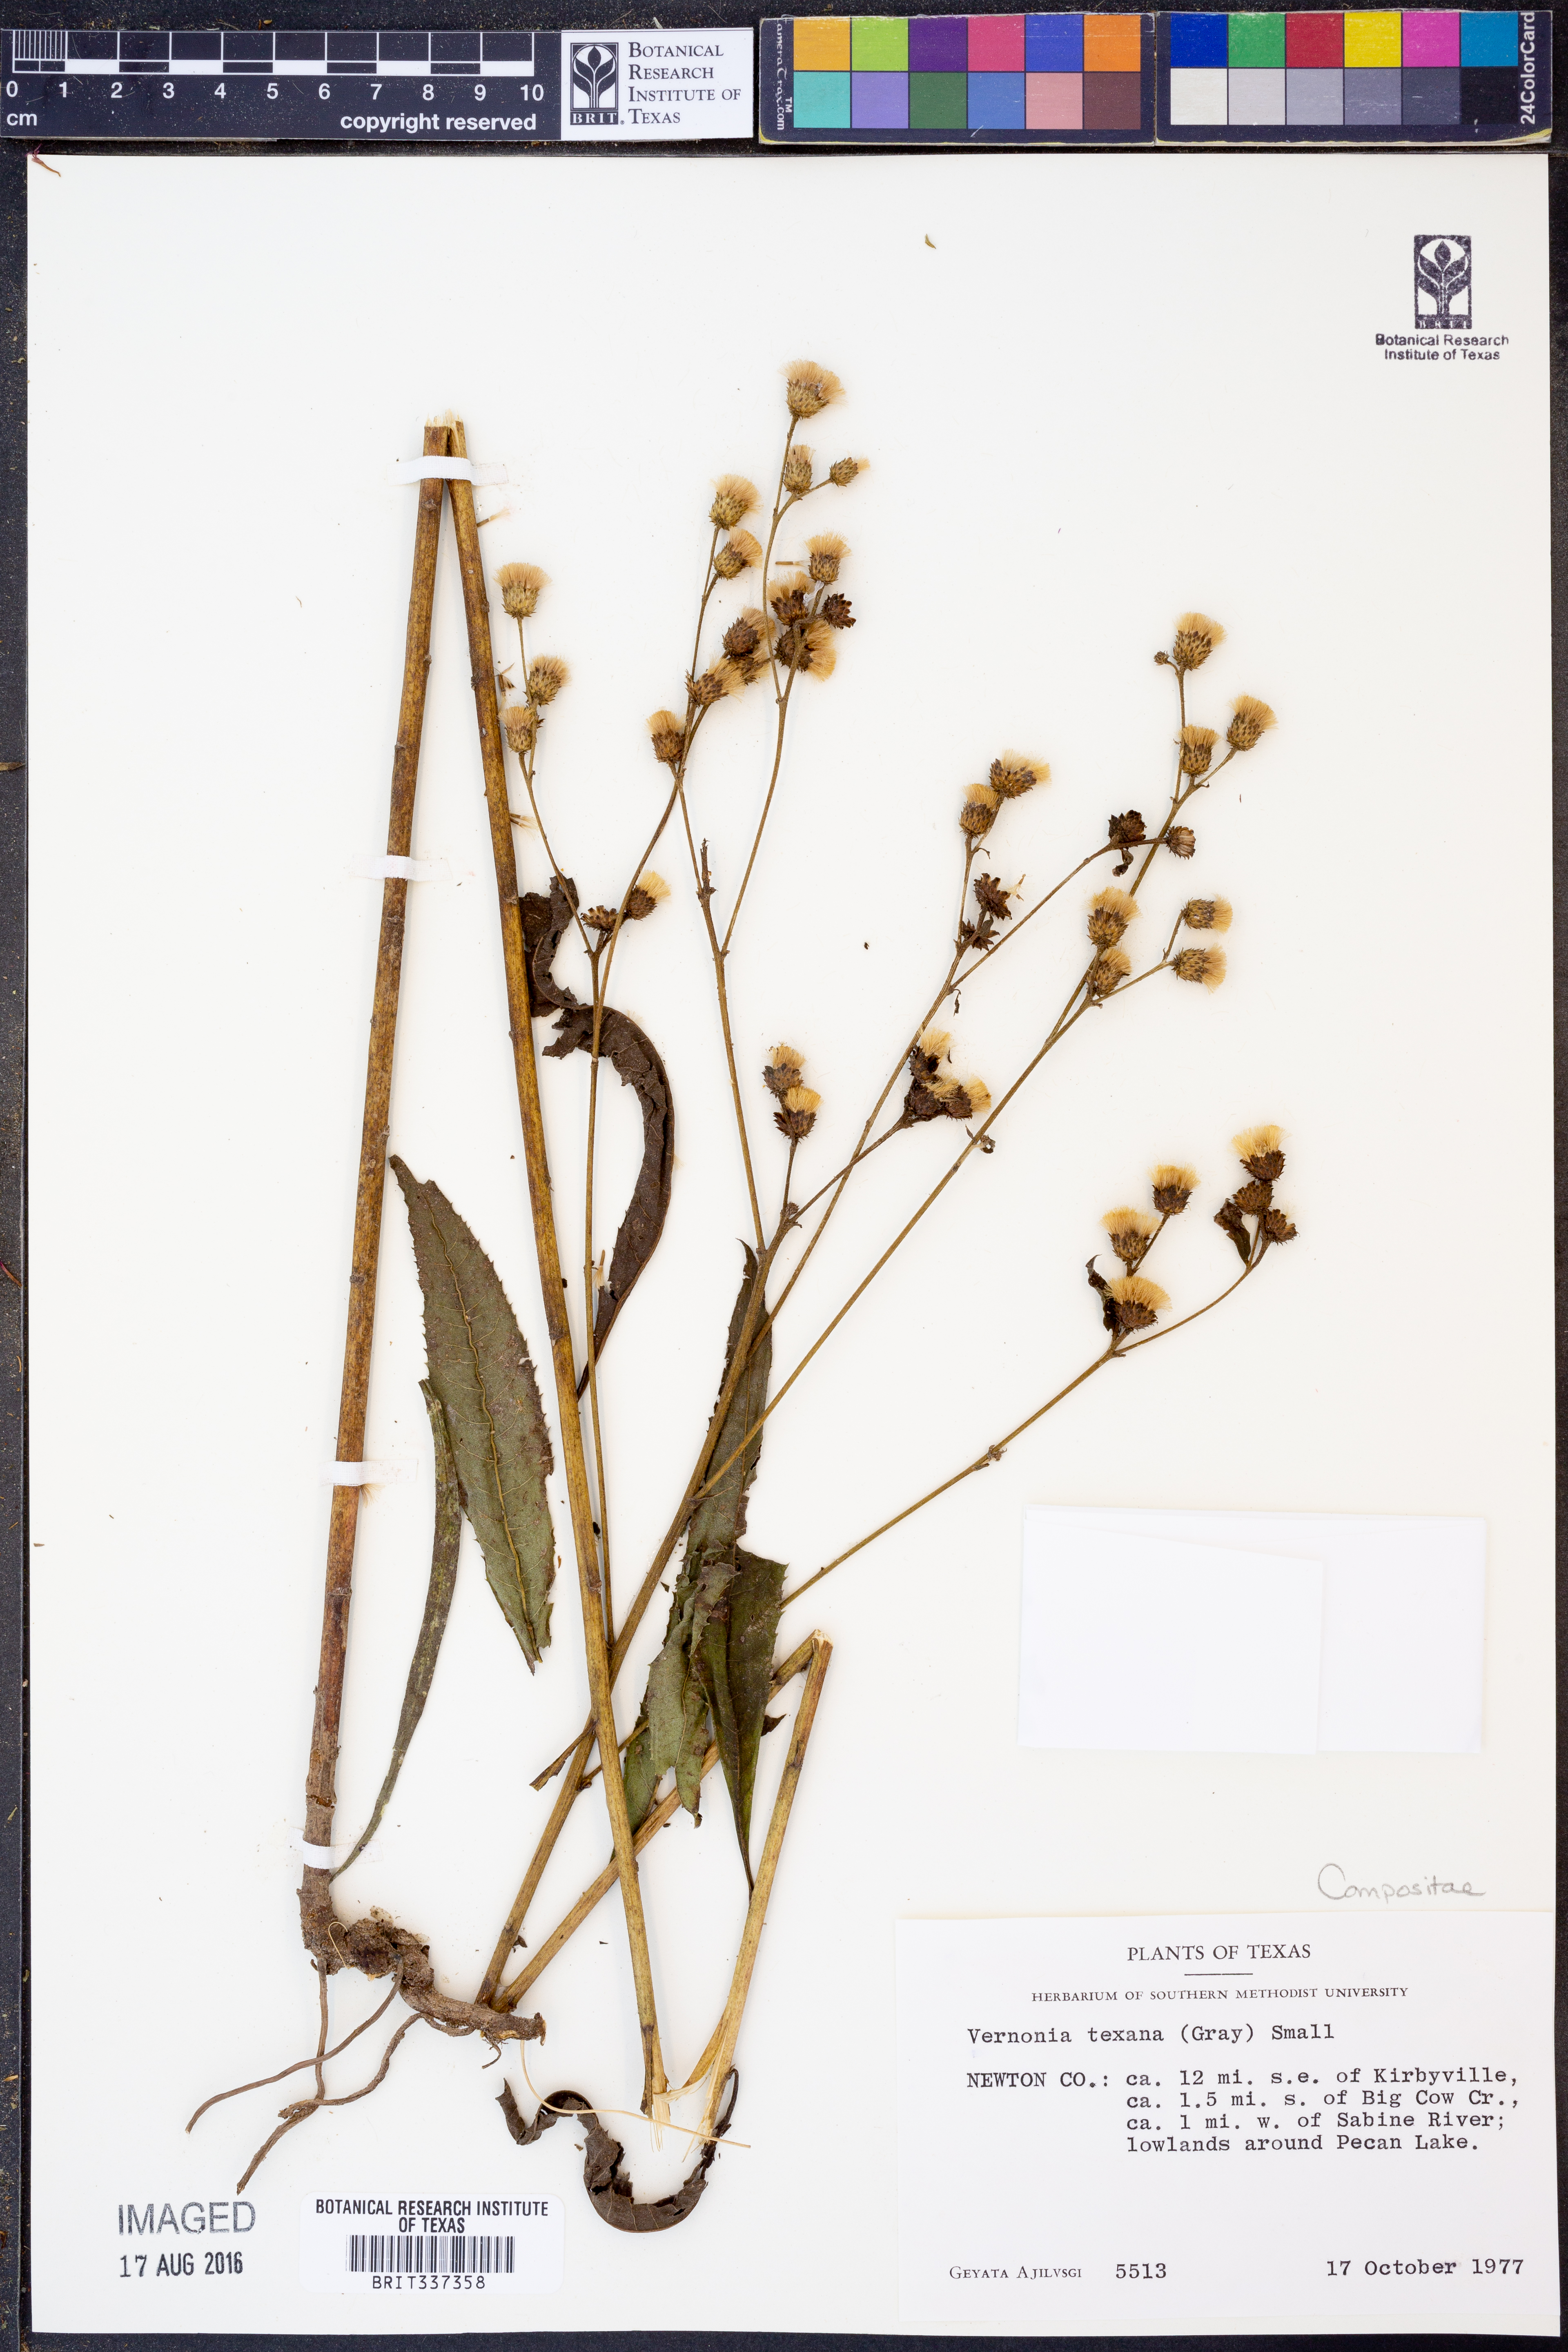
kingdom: Plantae
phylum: Tracheophyta
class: Magnoliopsida
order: Asterales
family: Asteraceae
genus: Vernonia
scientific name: Vernonia texana
